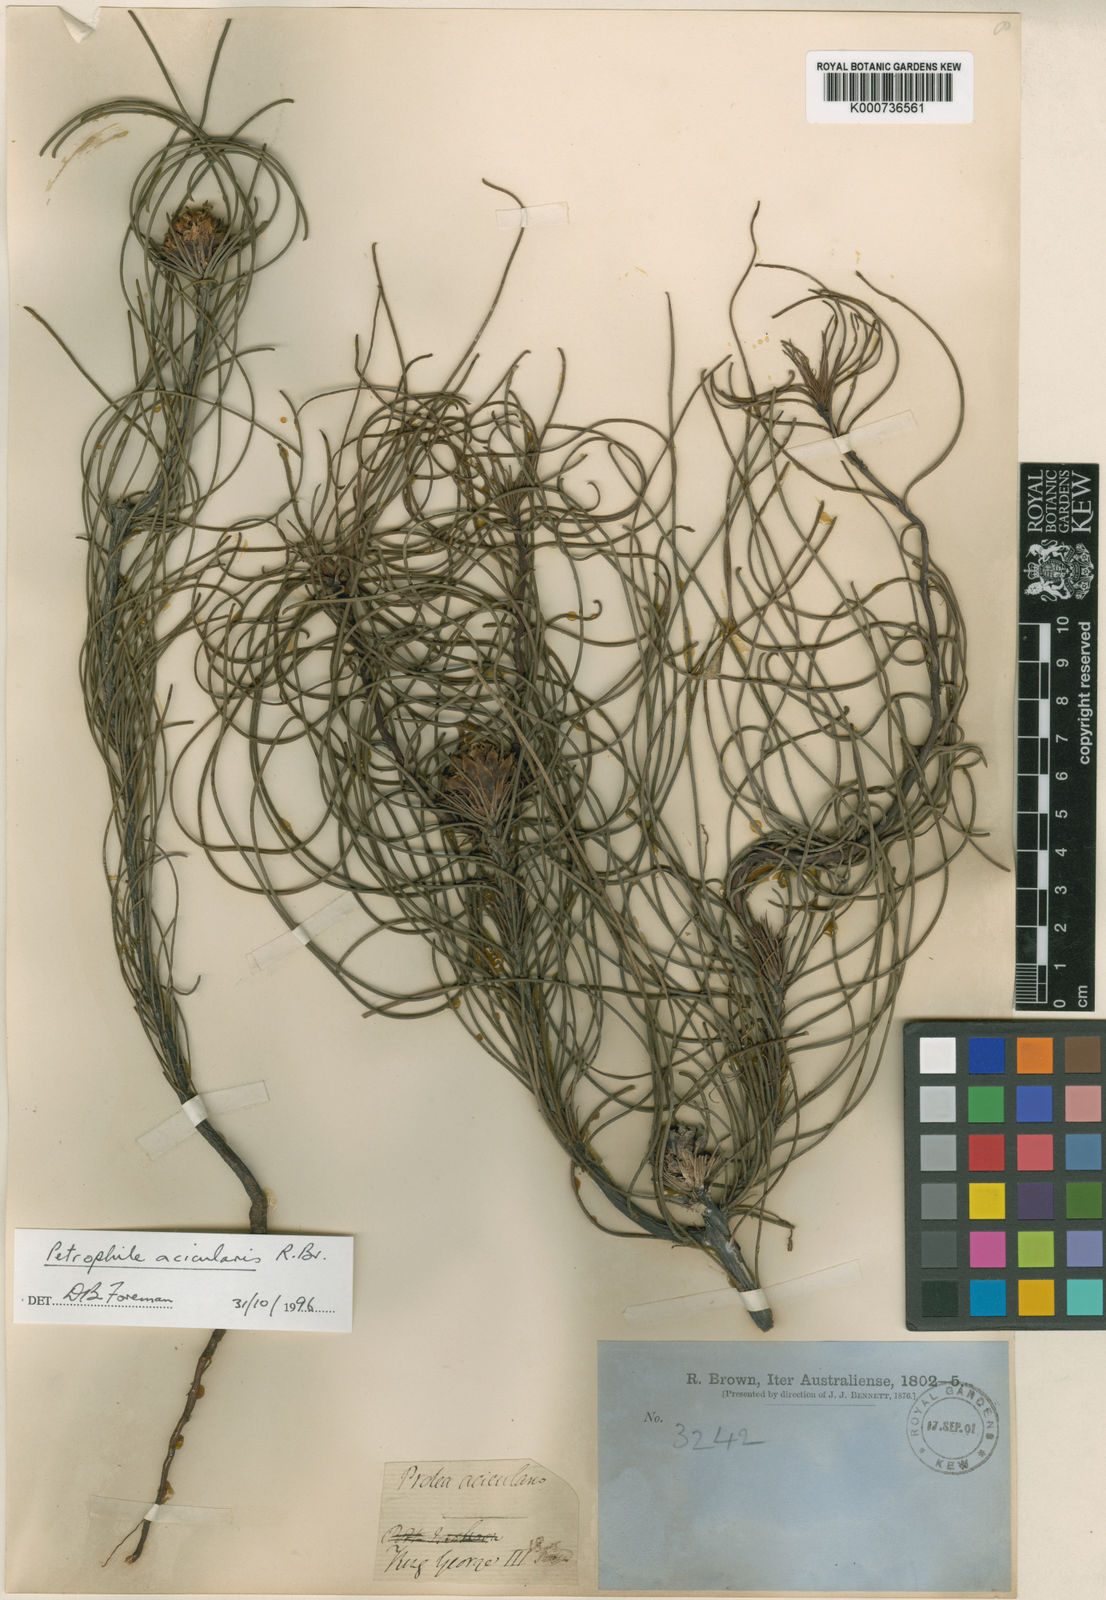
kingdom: Plantae
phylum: Tracheophyta
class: Magnoliopsida
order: Proteales
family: Proteaceae
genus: Petrophile
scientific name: Petrophile acicularis
